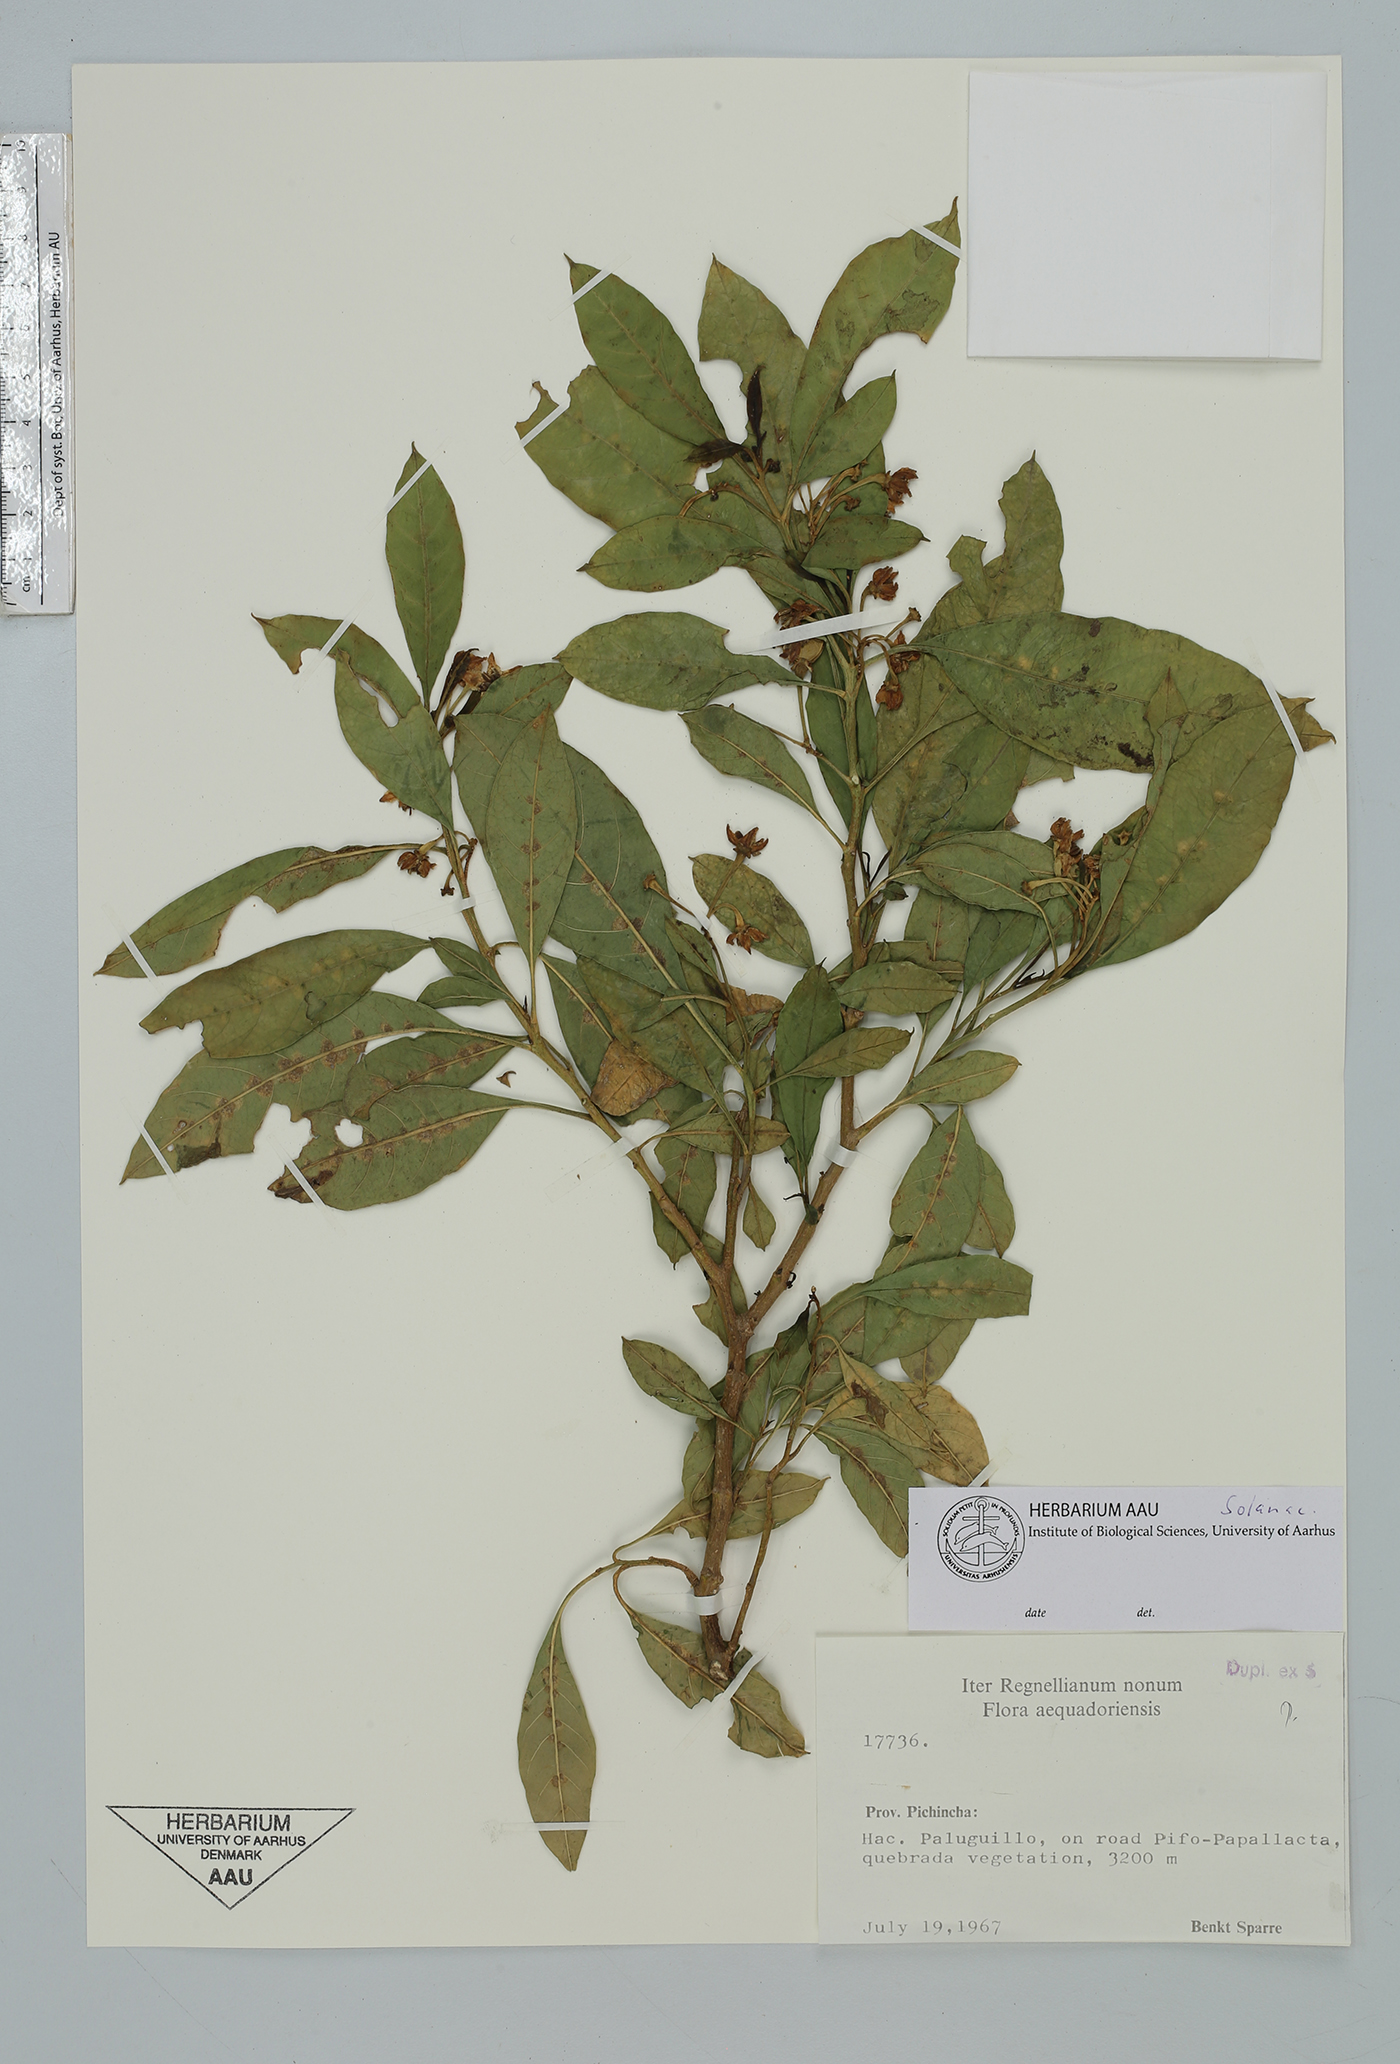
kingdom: Plantae
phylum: Tracheophyta
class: Magnoliopsida
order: Solanales
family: Solanaceae
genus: Solanum
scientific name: Solanum
